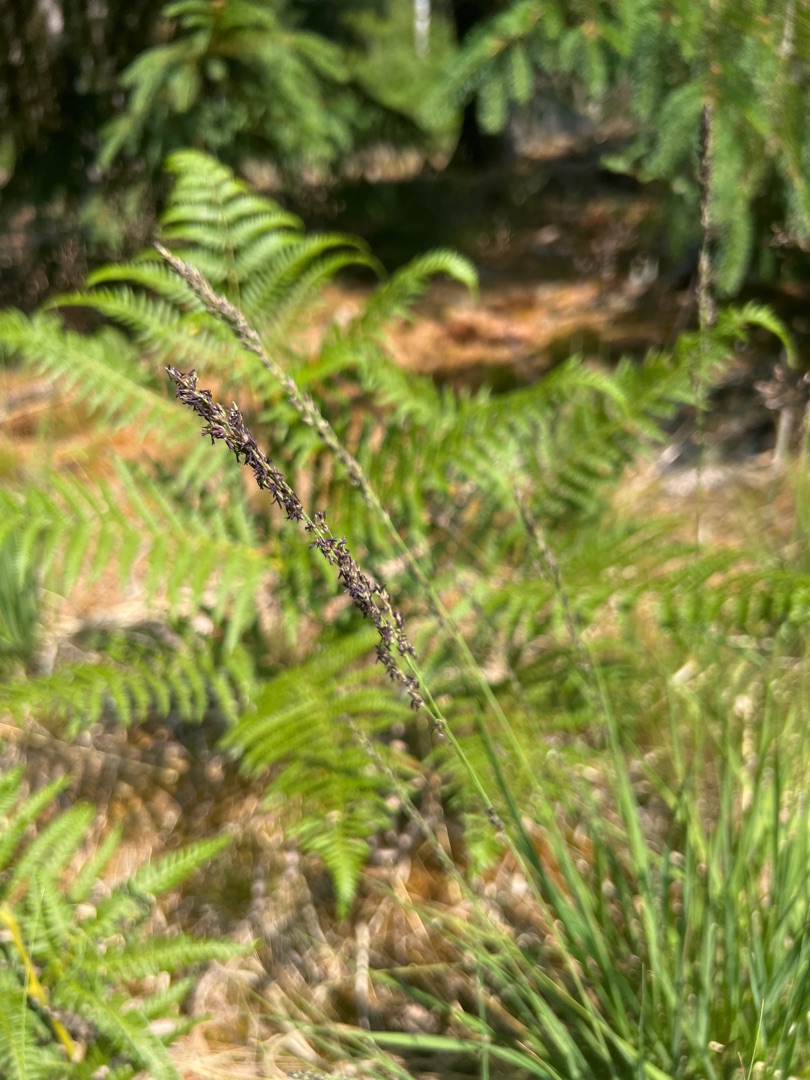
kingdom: Plantae
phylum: Tracheophyta
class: Liliopsida
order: Poales
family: Poaceae
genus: Molinia
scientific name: Molinia caerulea
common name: Blåtop
